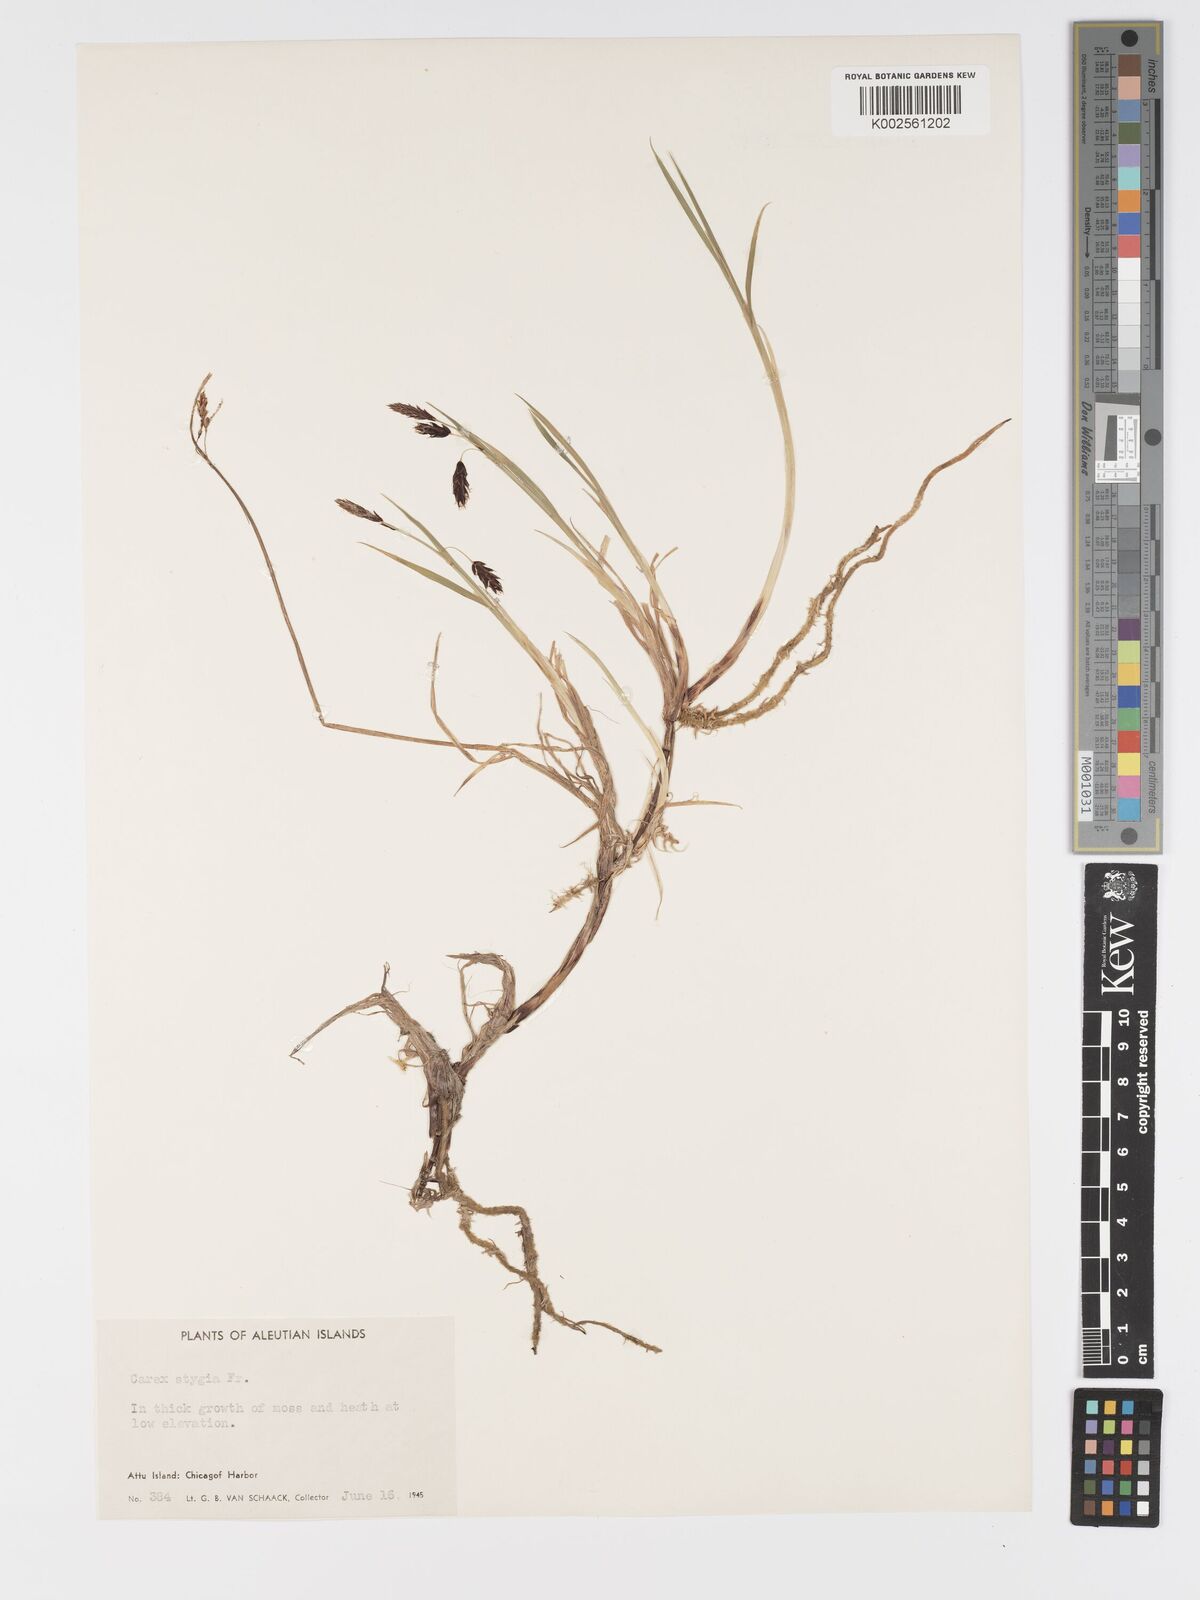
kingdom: Plantae
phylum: Tracheophyta
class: Liliopsida
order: Poales
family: Cyperaceae
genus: Carex
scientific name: Carex stygia
